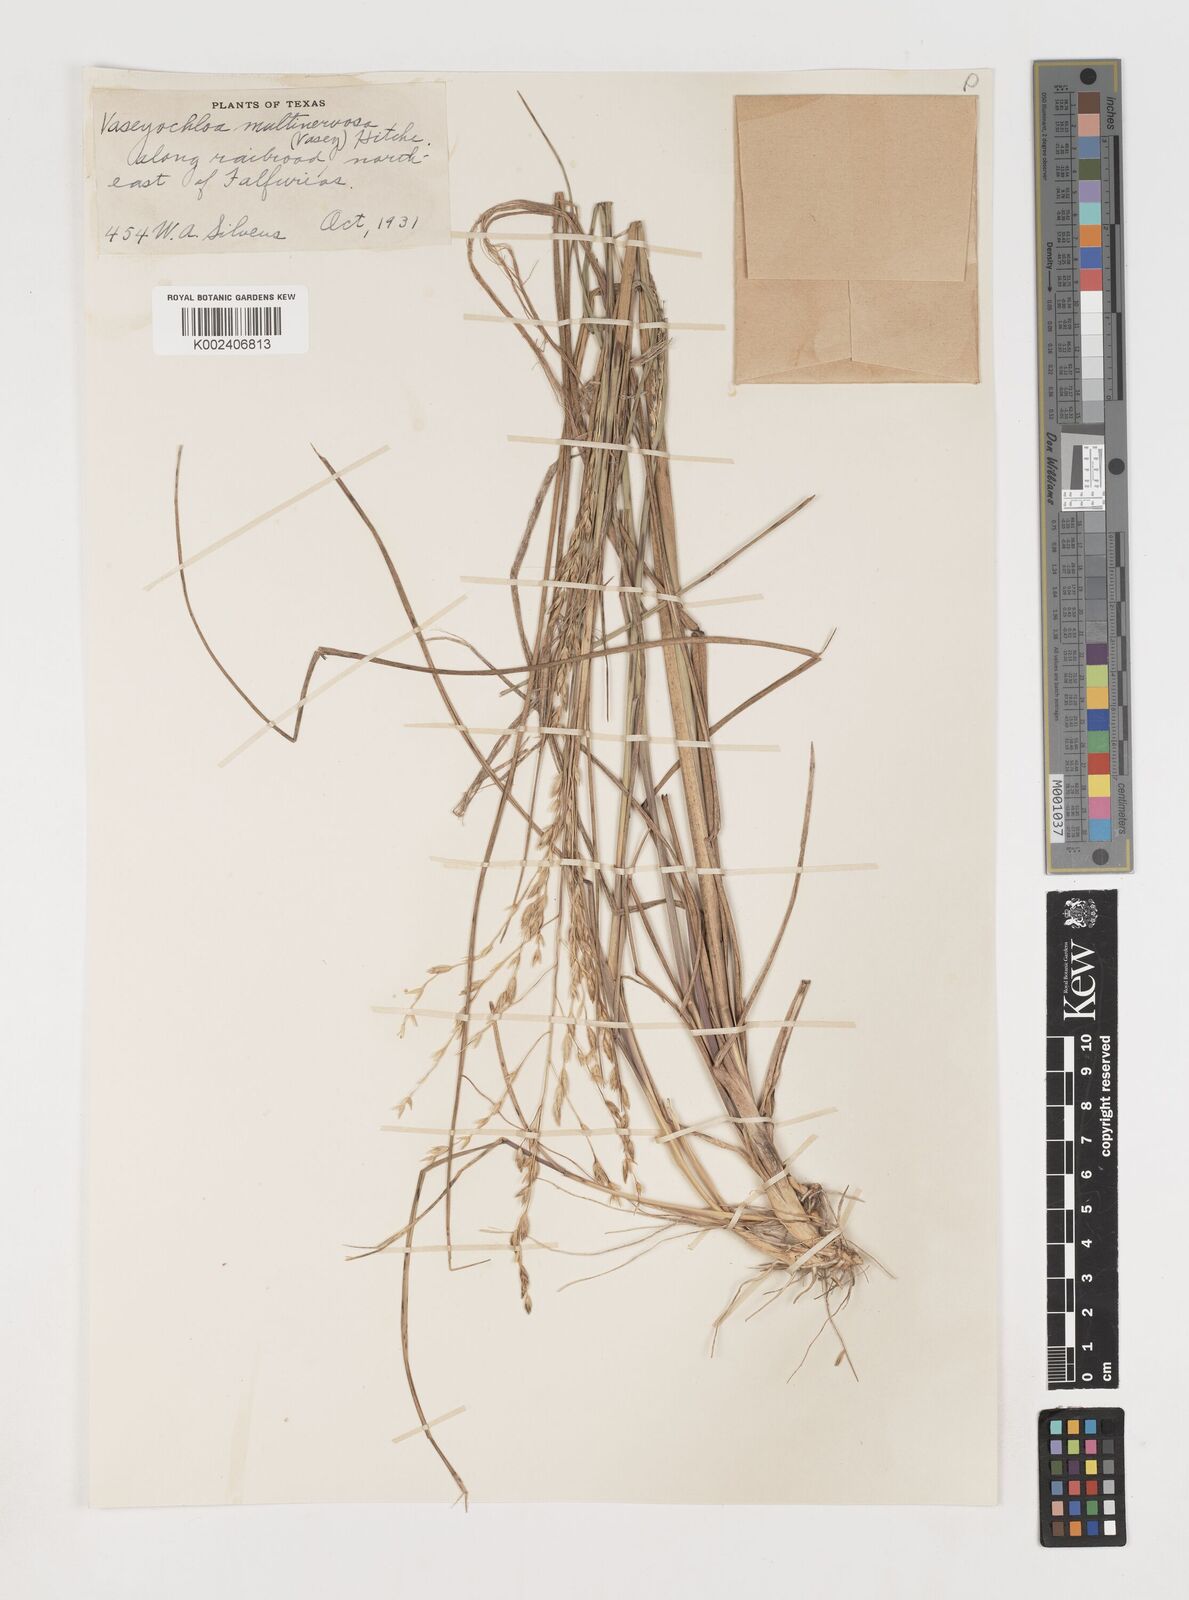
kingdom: Plantae
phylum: Tracheophyta
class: Liliopsida
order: Poales
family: Poaceae
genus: Vaseyochloa
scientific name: Vaseyochloa multinervosa
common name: Texas grass
